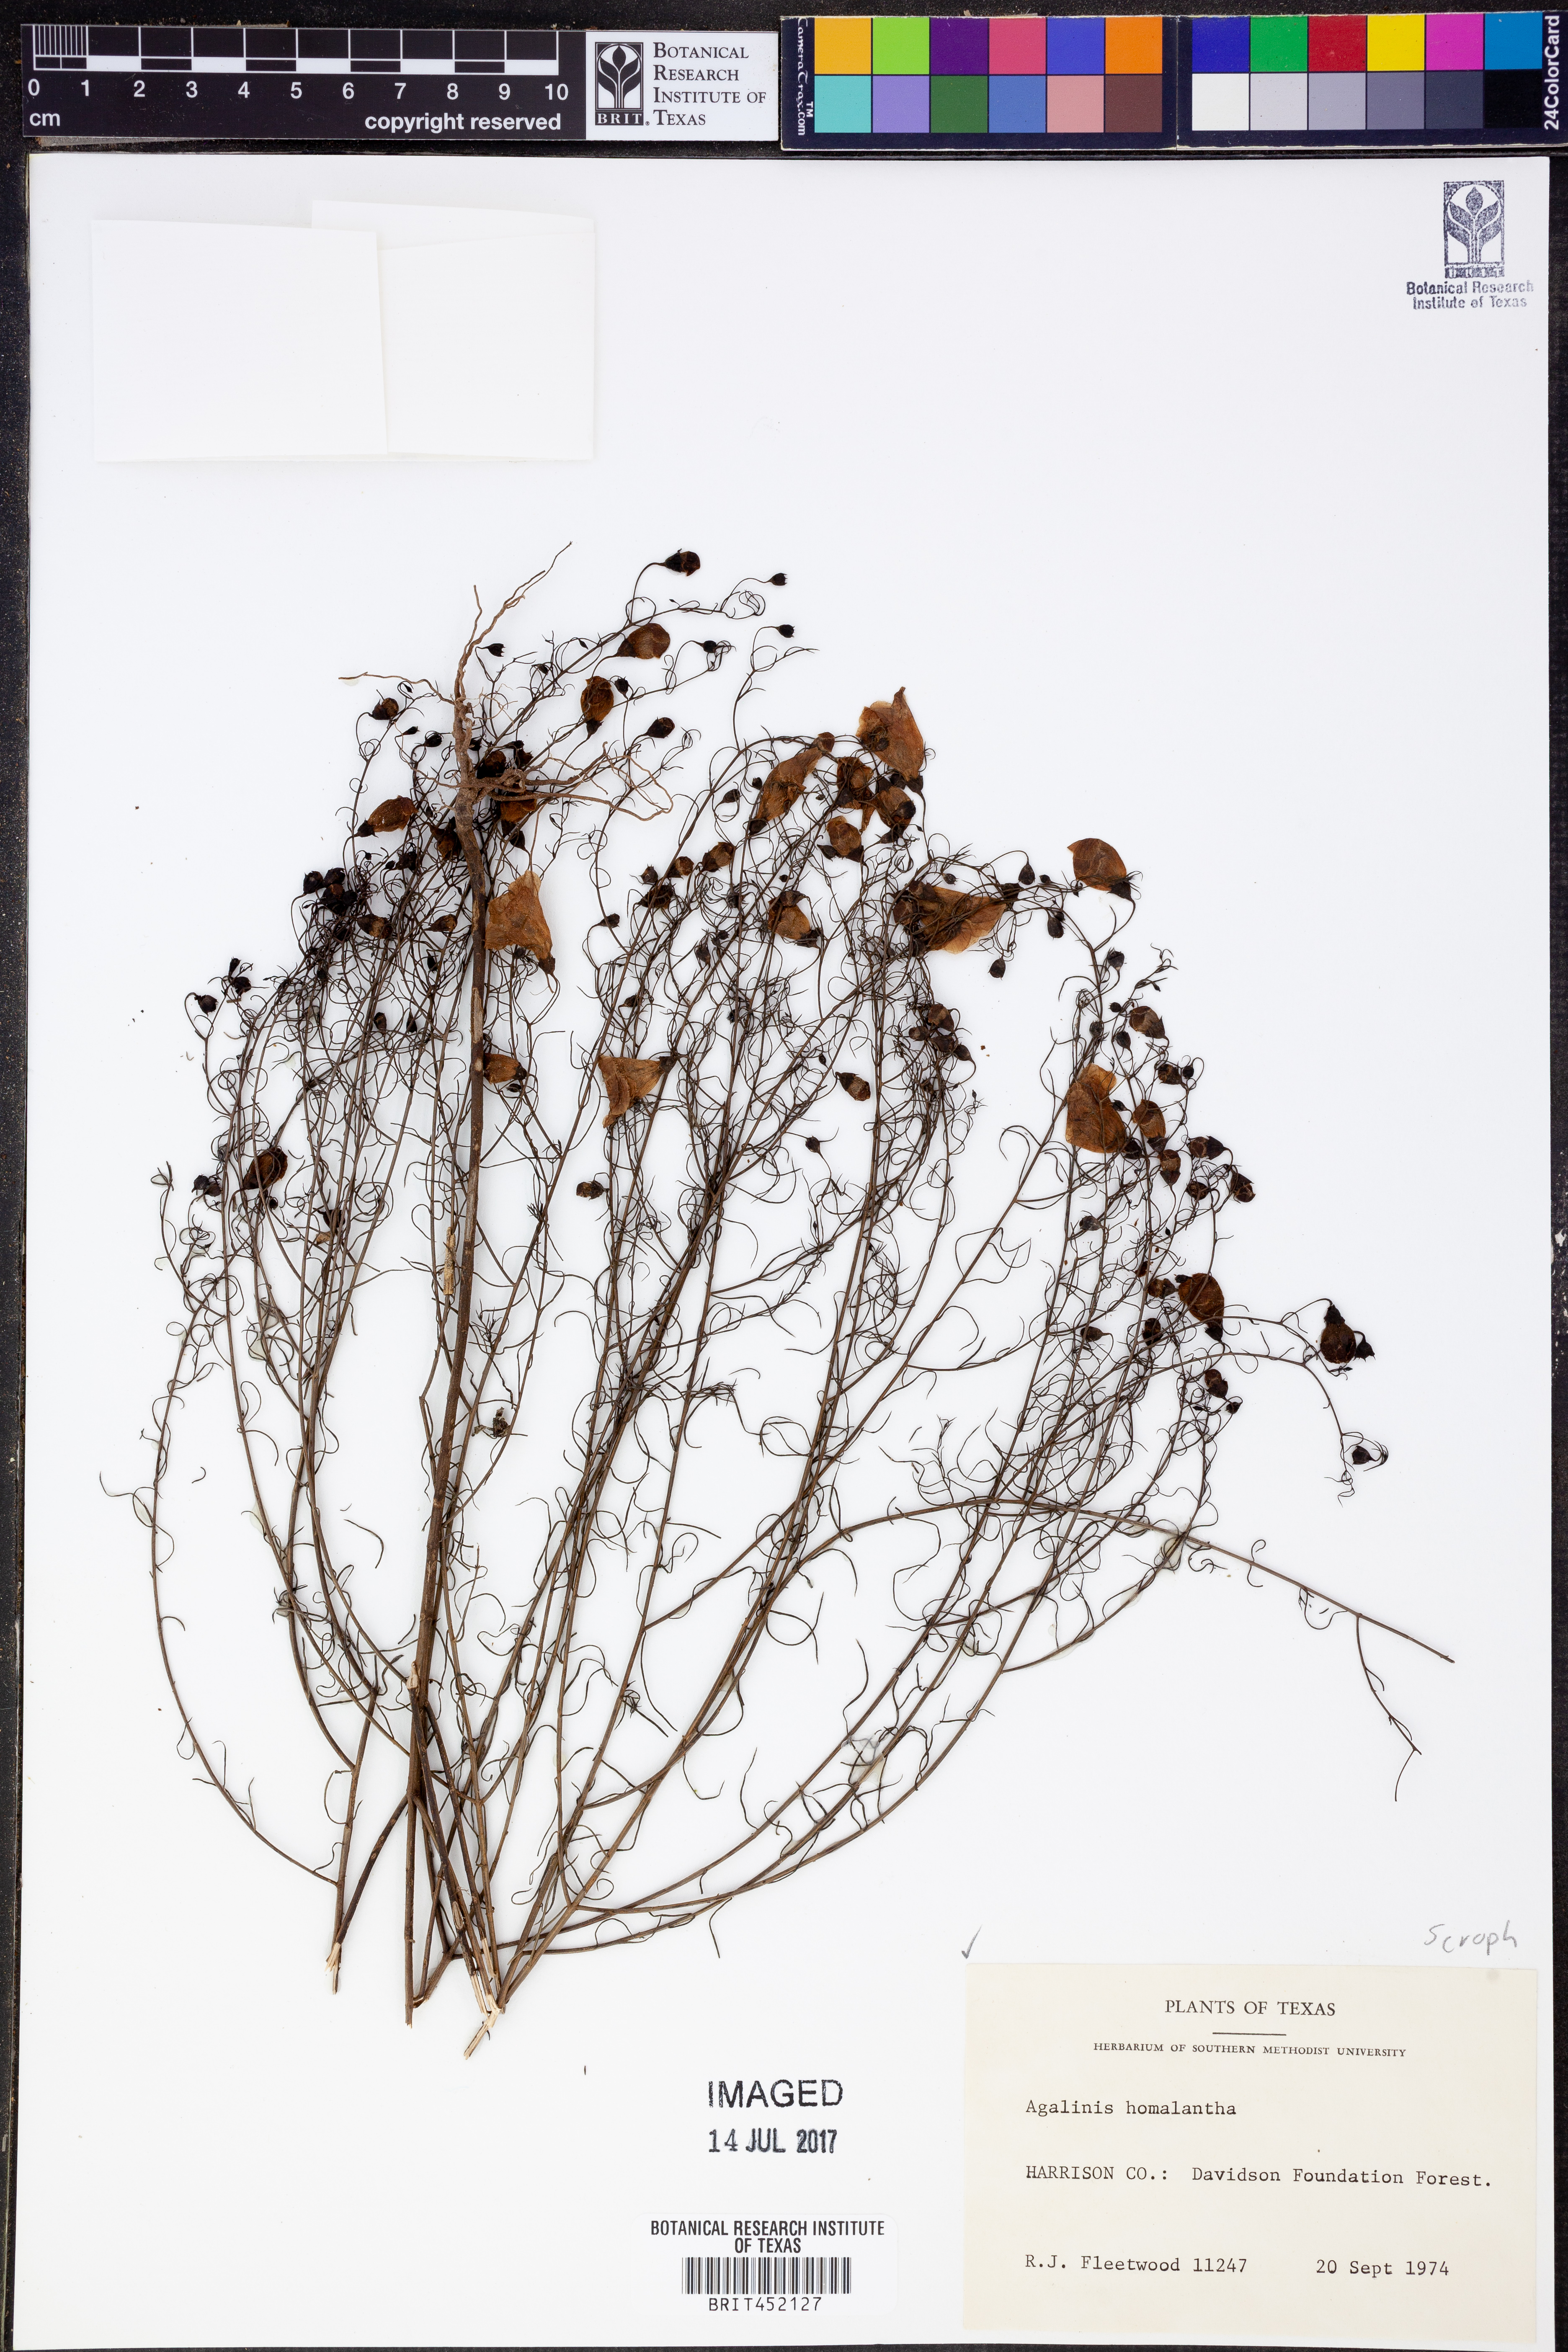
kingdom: Plantae
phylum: Tracheophyta
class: Magnoliopsida
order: Lamiales
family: Orobanchaceae
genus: Agalinis
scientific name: Agalinis homalantha
